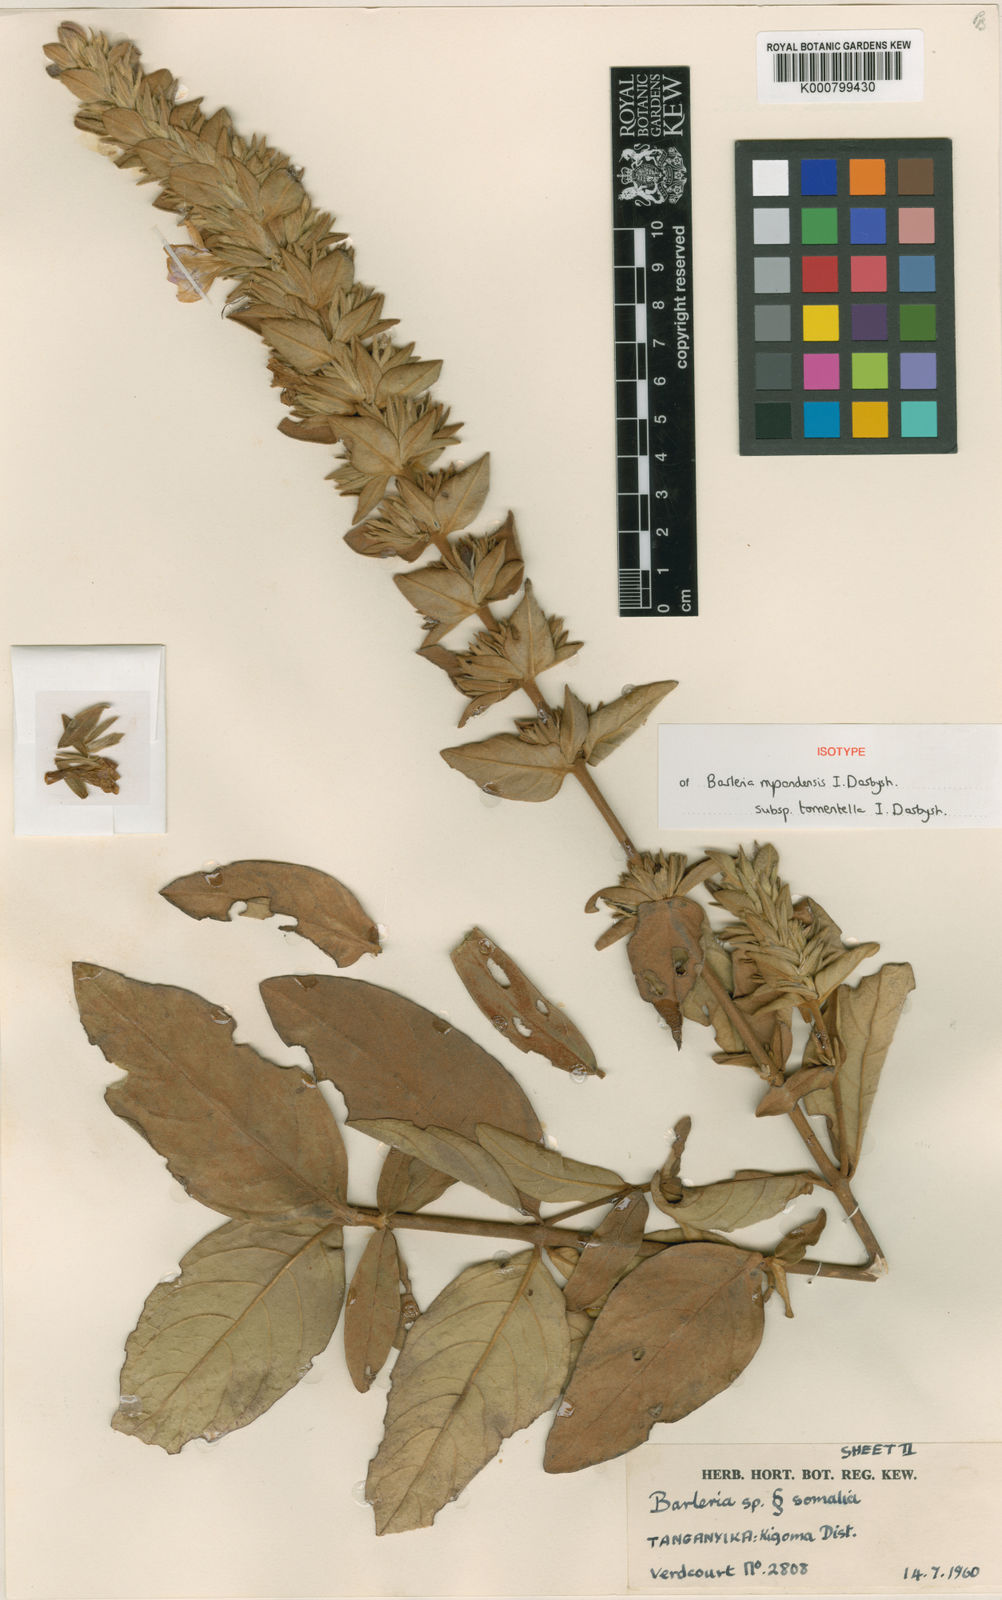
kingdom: Plantae
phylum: Tracheophyta
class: Magnoliopsida
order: Lamiales
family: Acanthaceae
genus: Barleria
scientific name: Barleria mpandensis
